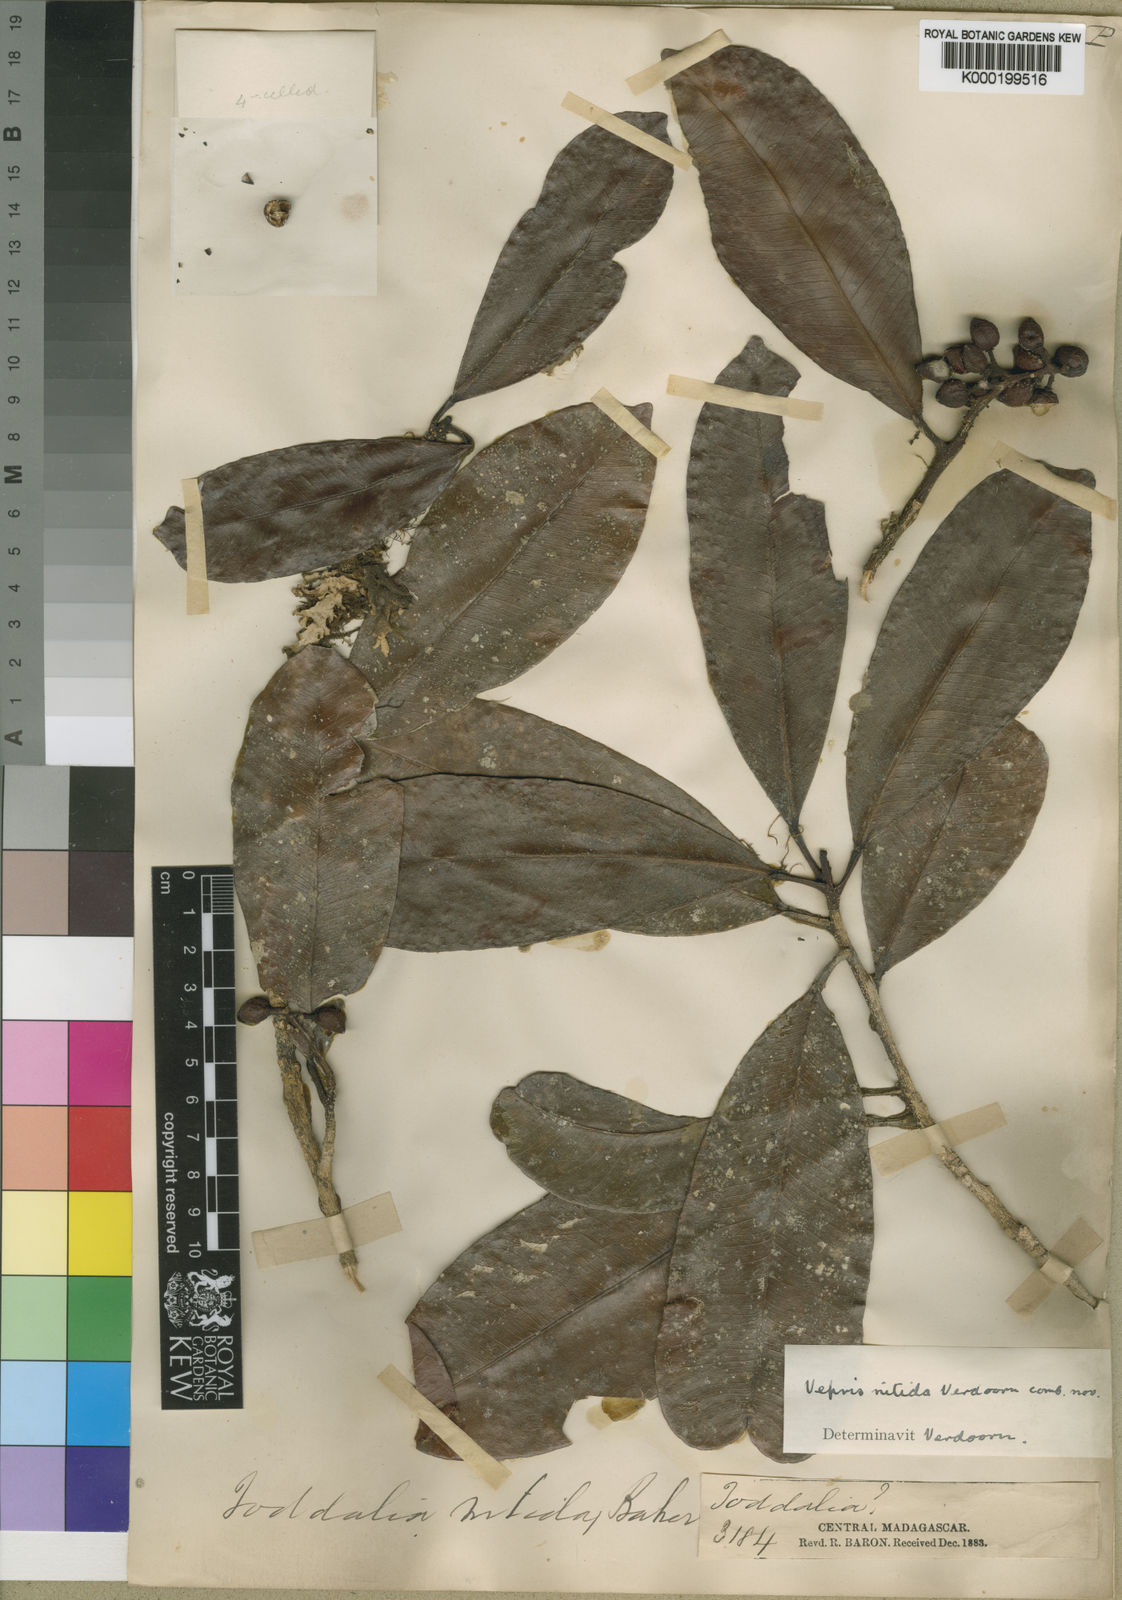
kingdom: Plantae
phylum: Tracheophyta
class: Magnoliopsida
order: Sapindales
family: Rutaceae
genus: Vepris
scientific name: Vepris nitida
